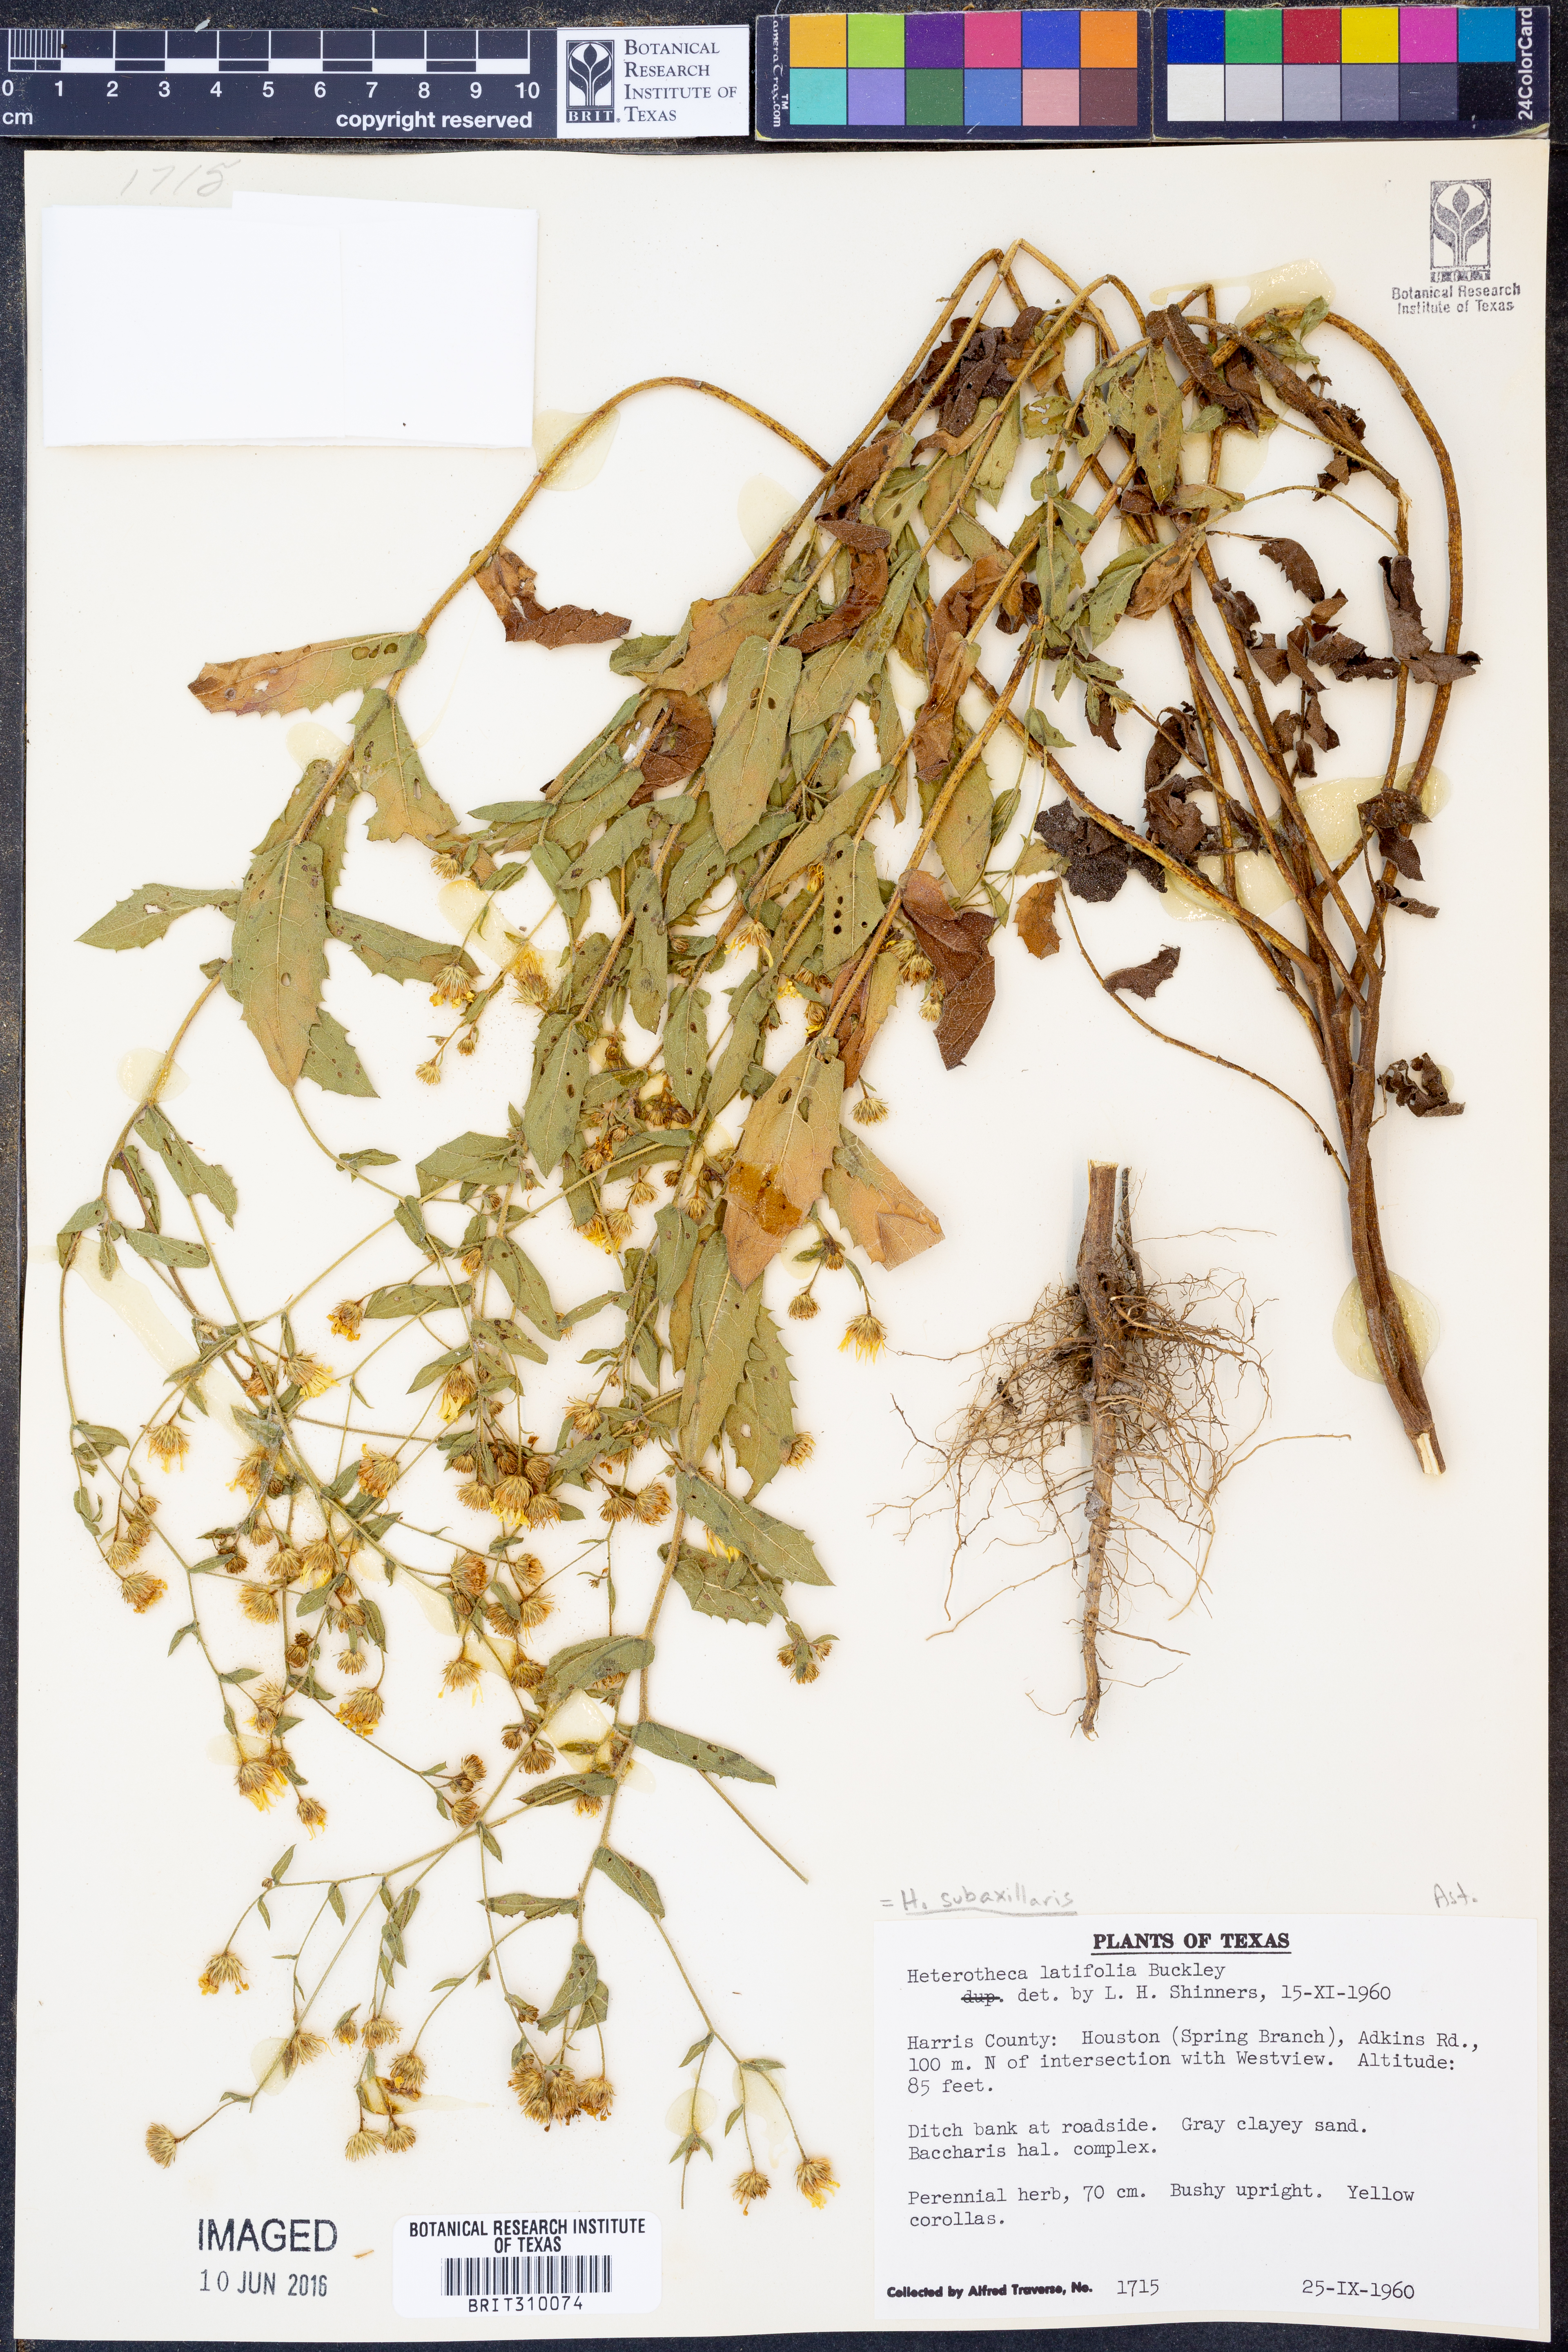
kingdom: Plantae
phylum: Tracheophyta
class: Magnoliopsida
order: Asterales
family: Asteraceae
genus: Heterotheca
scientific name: Heterotheca subaxillaris
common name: Camphorweed
